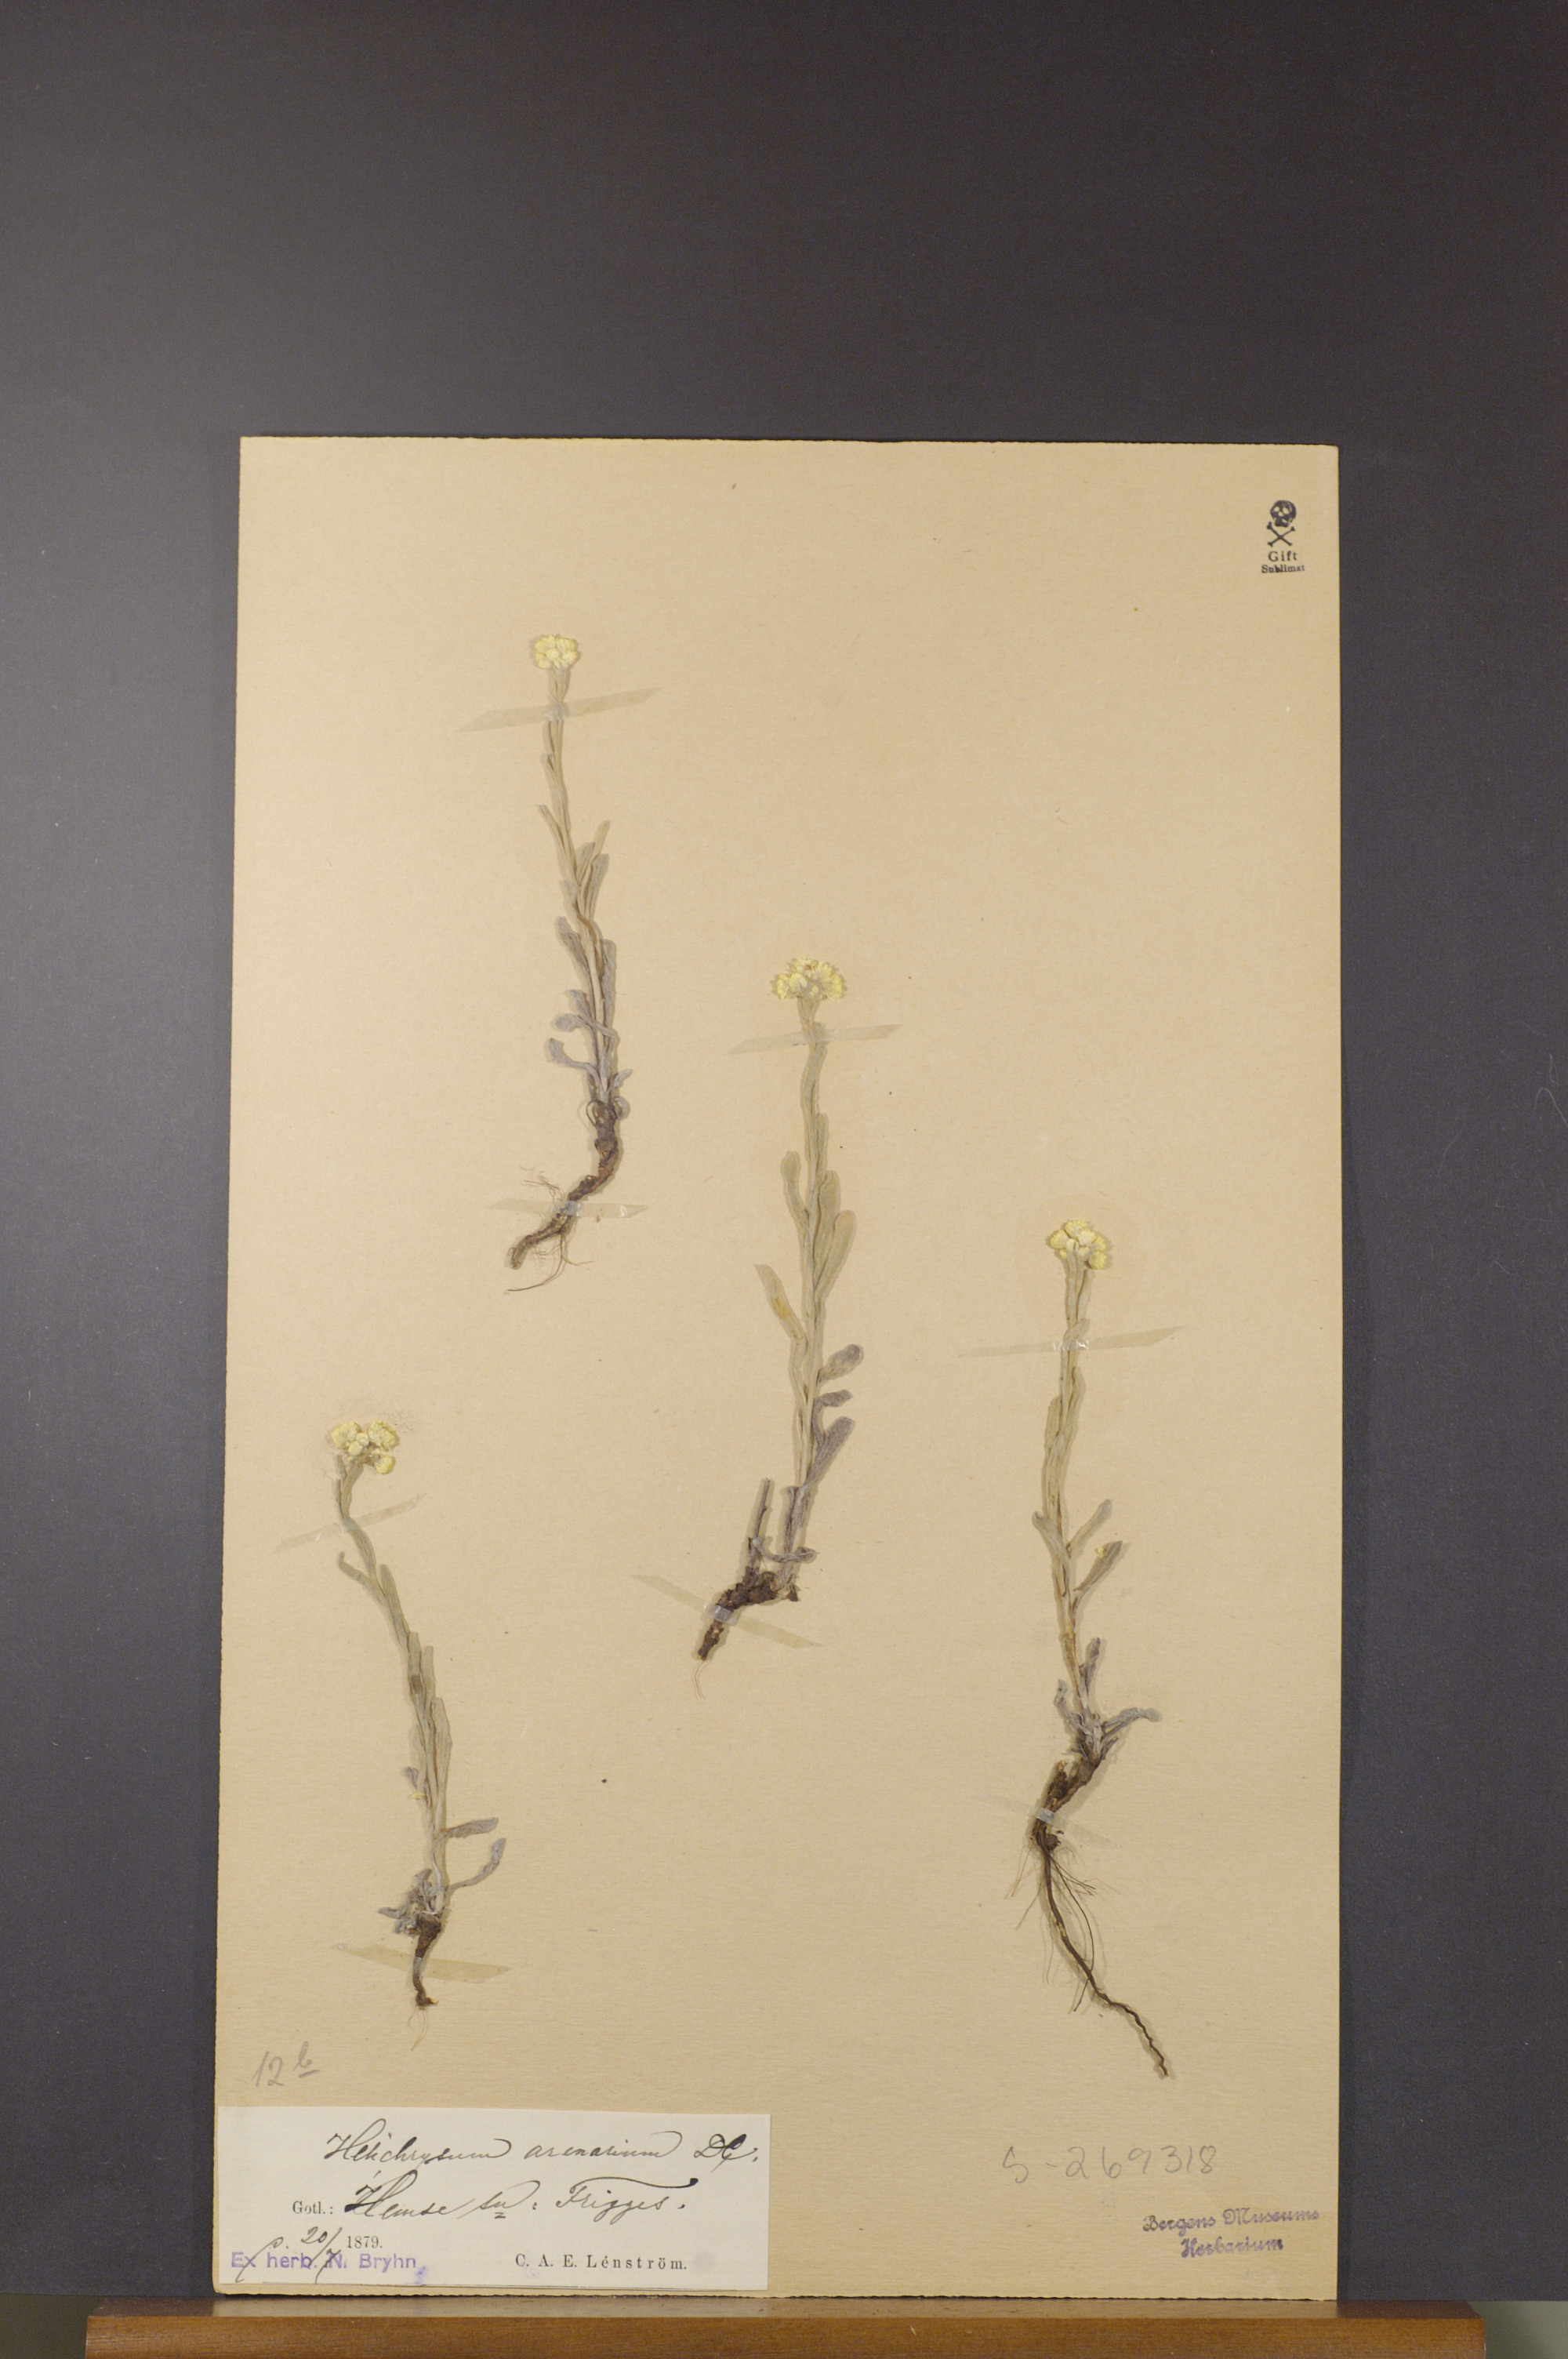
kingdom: Plantae
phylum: Tracheophyta
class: Magnoliopsida
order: Asterales
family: Asteraceae
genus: Helichrysum
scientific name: Helichrysum arenarium
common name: Strawflower
